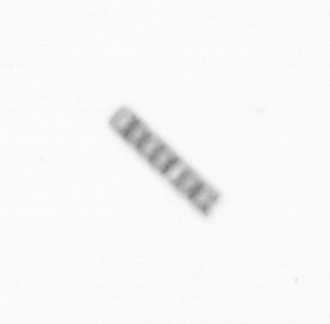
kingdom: Chromista
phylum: Ochrophyta
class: Bacillariophyceae
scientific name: Bacillariophyceae
